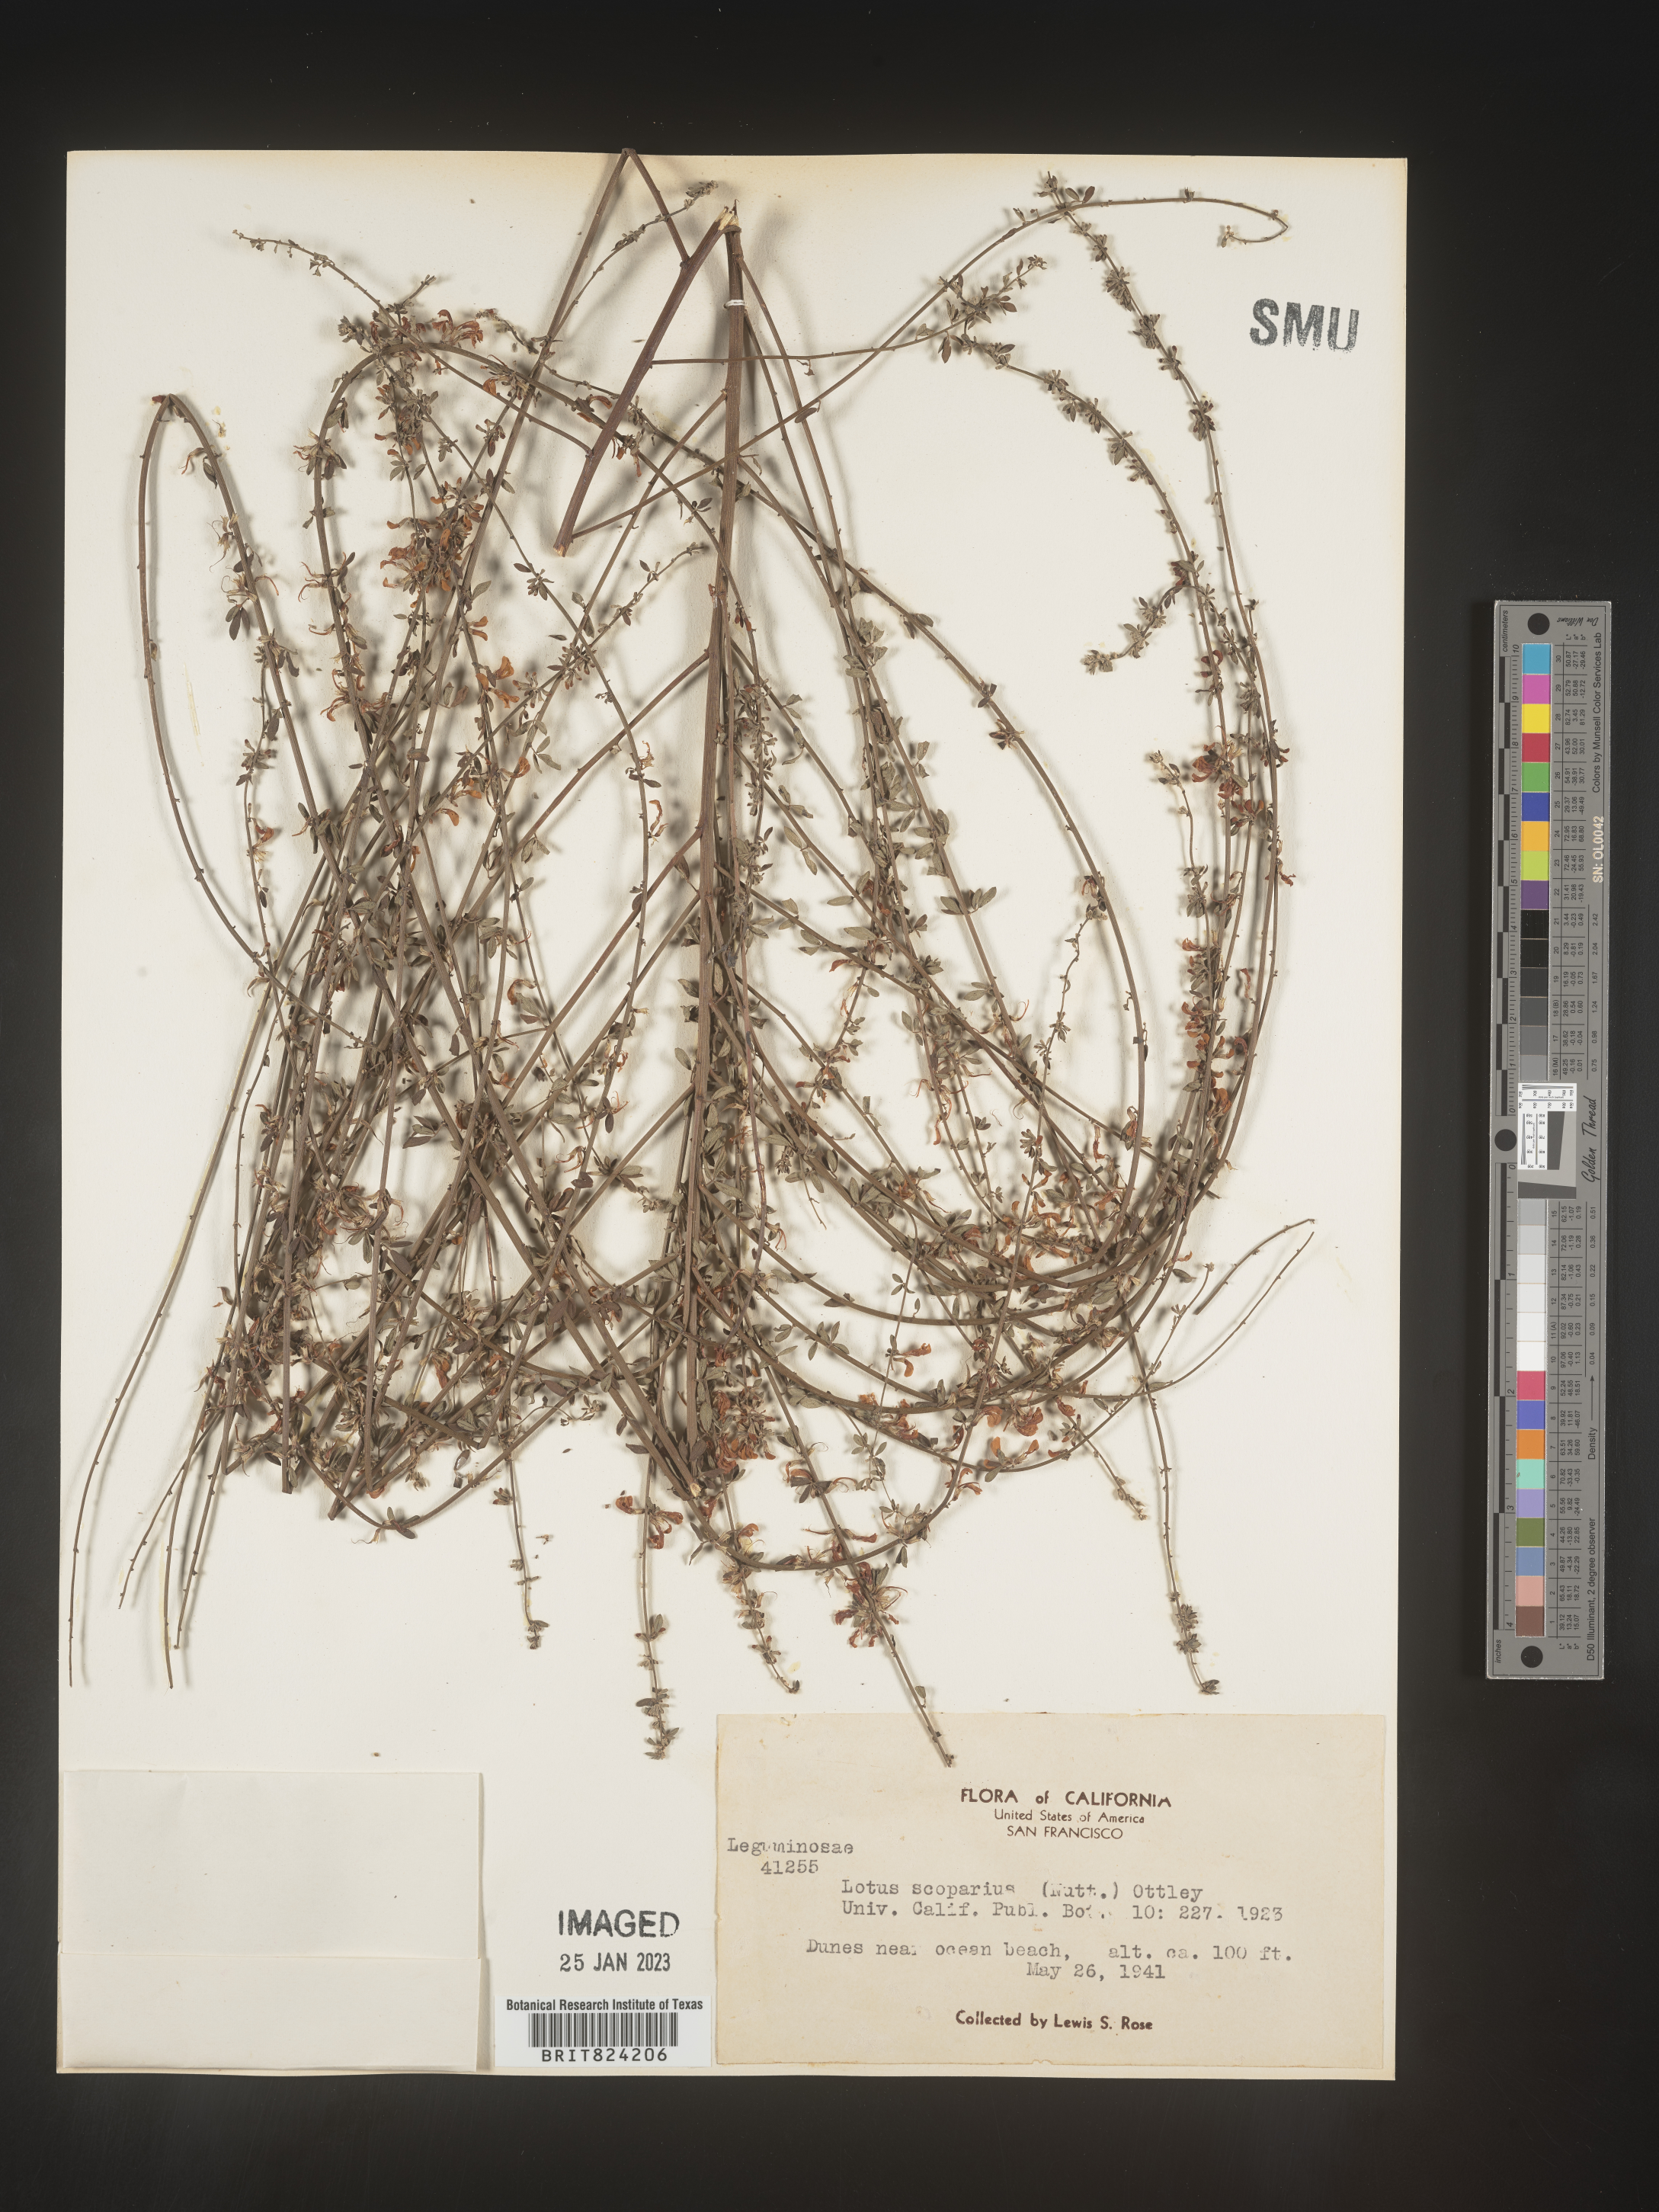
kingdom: Plantae
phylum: Tracheophyta
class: Magnoliopsida
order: Fabales
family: Fabaceae
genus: Lotus
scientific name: Lotus
